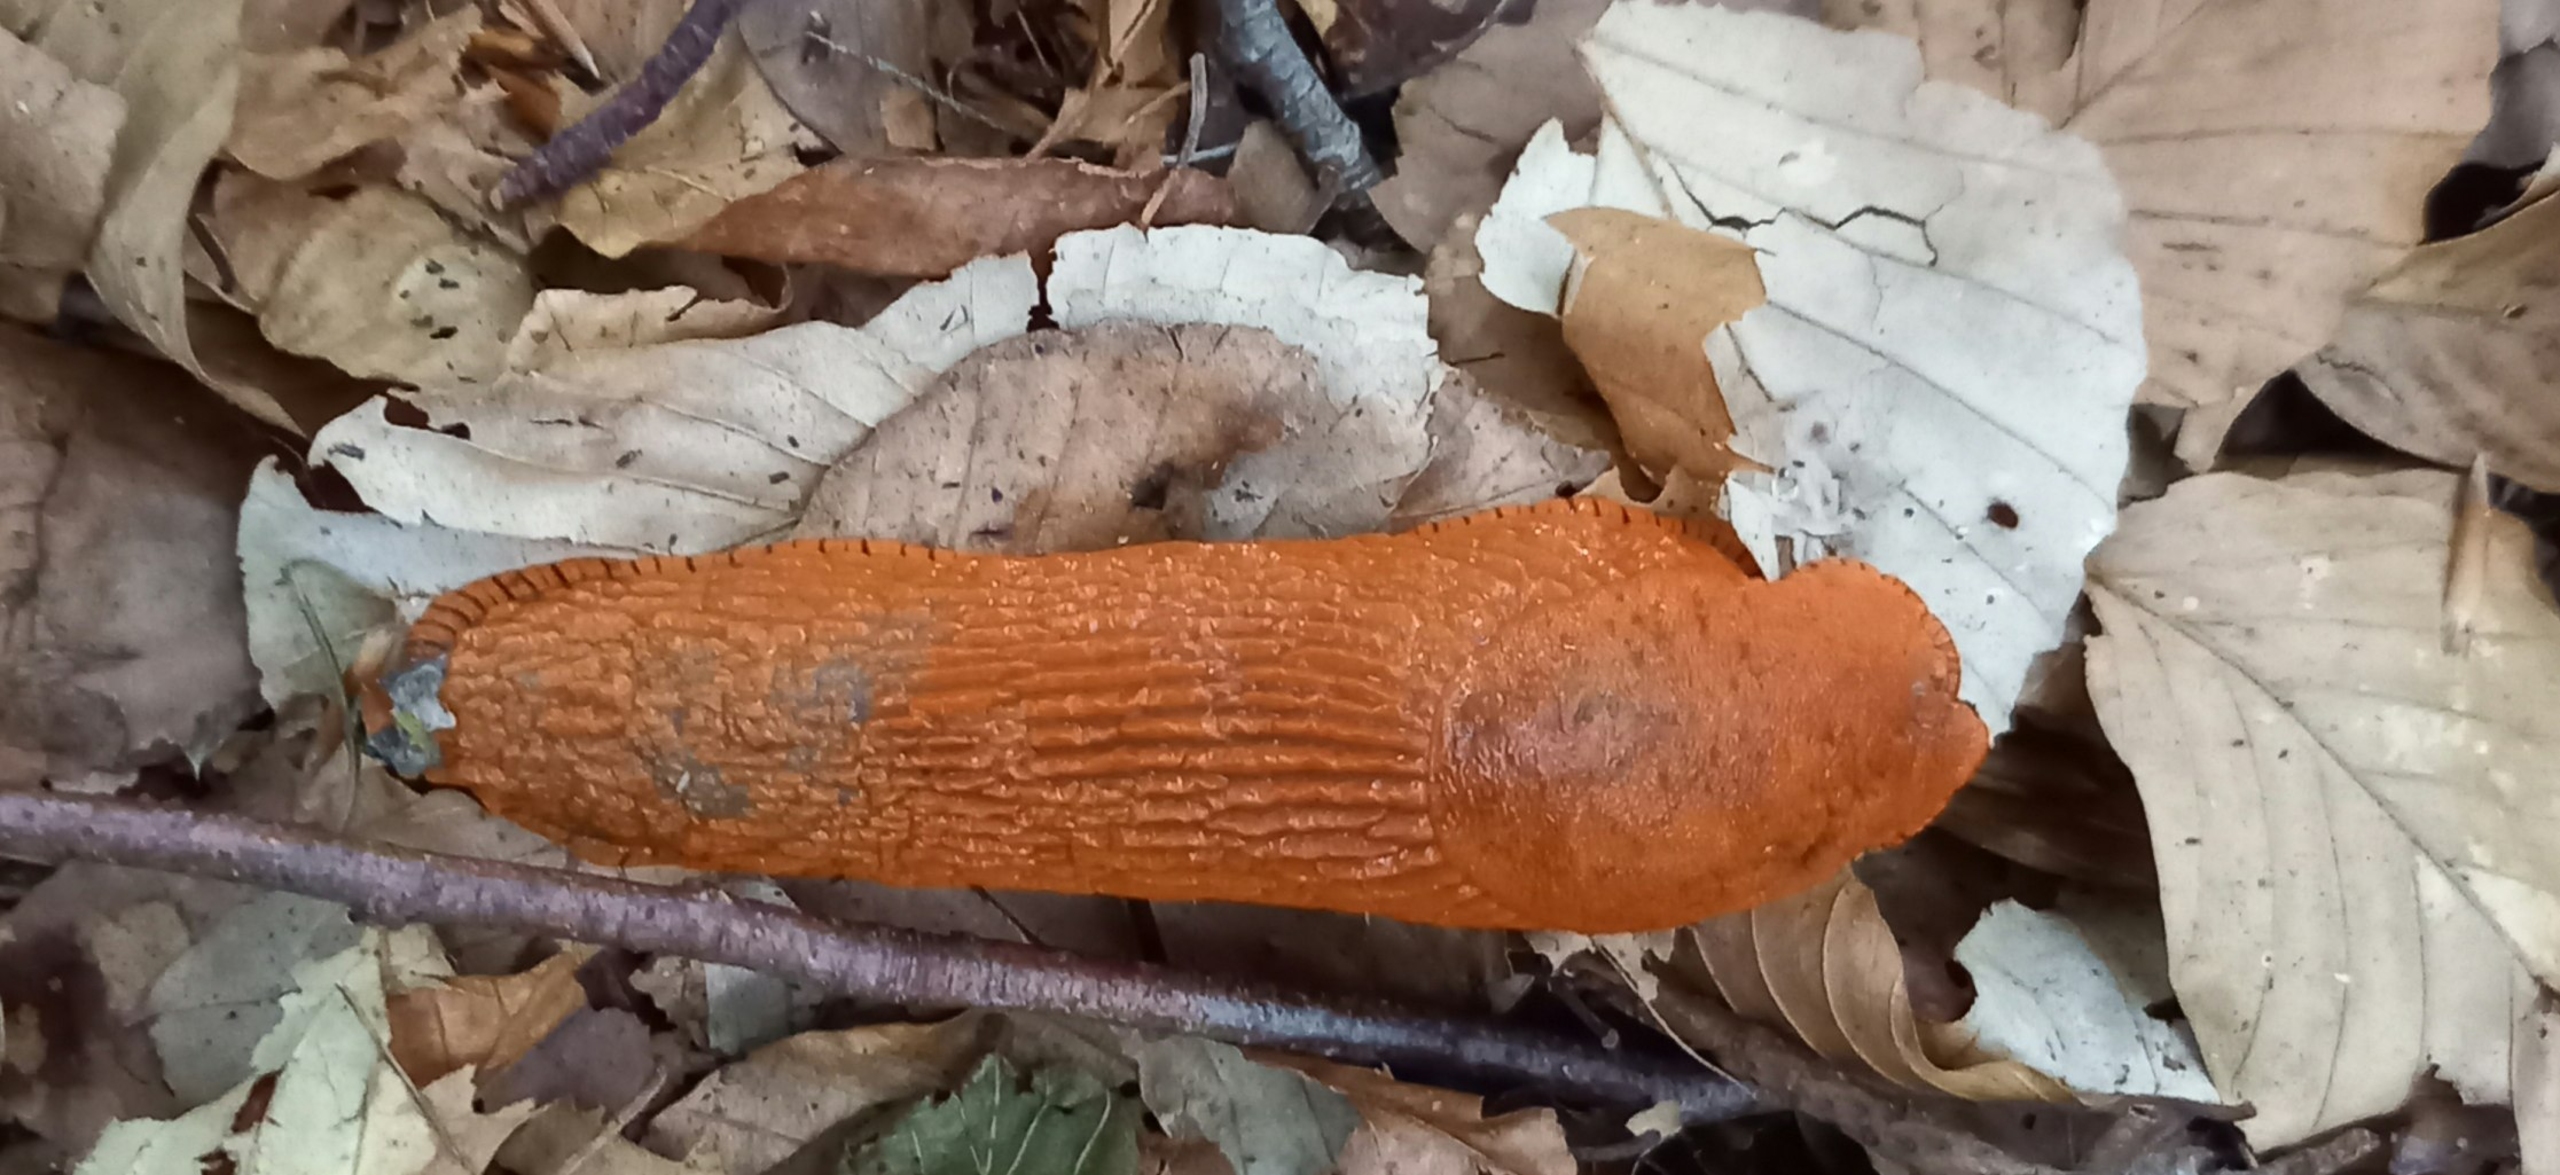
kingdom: Animalia
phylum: Mollusca
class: Gastropoda
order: Stylommatophora
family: Arionidae
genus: Arion
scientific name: Arion rufus
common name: Rød skovsnegl
